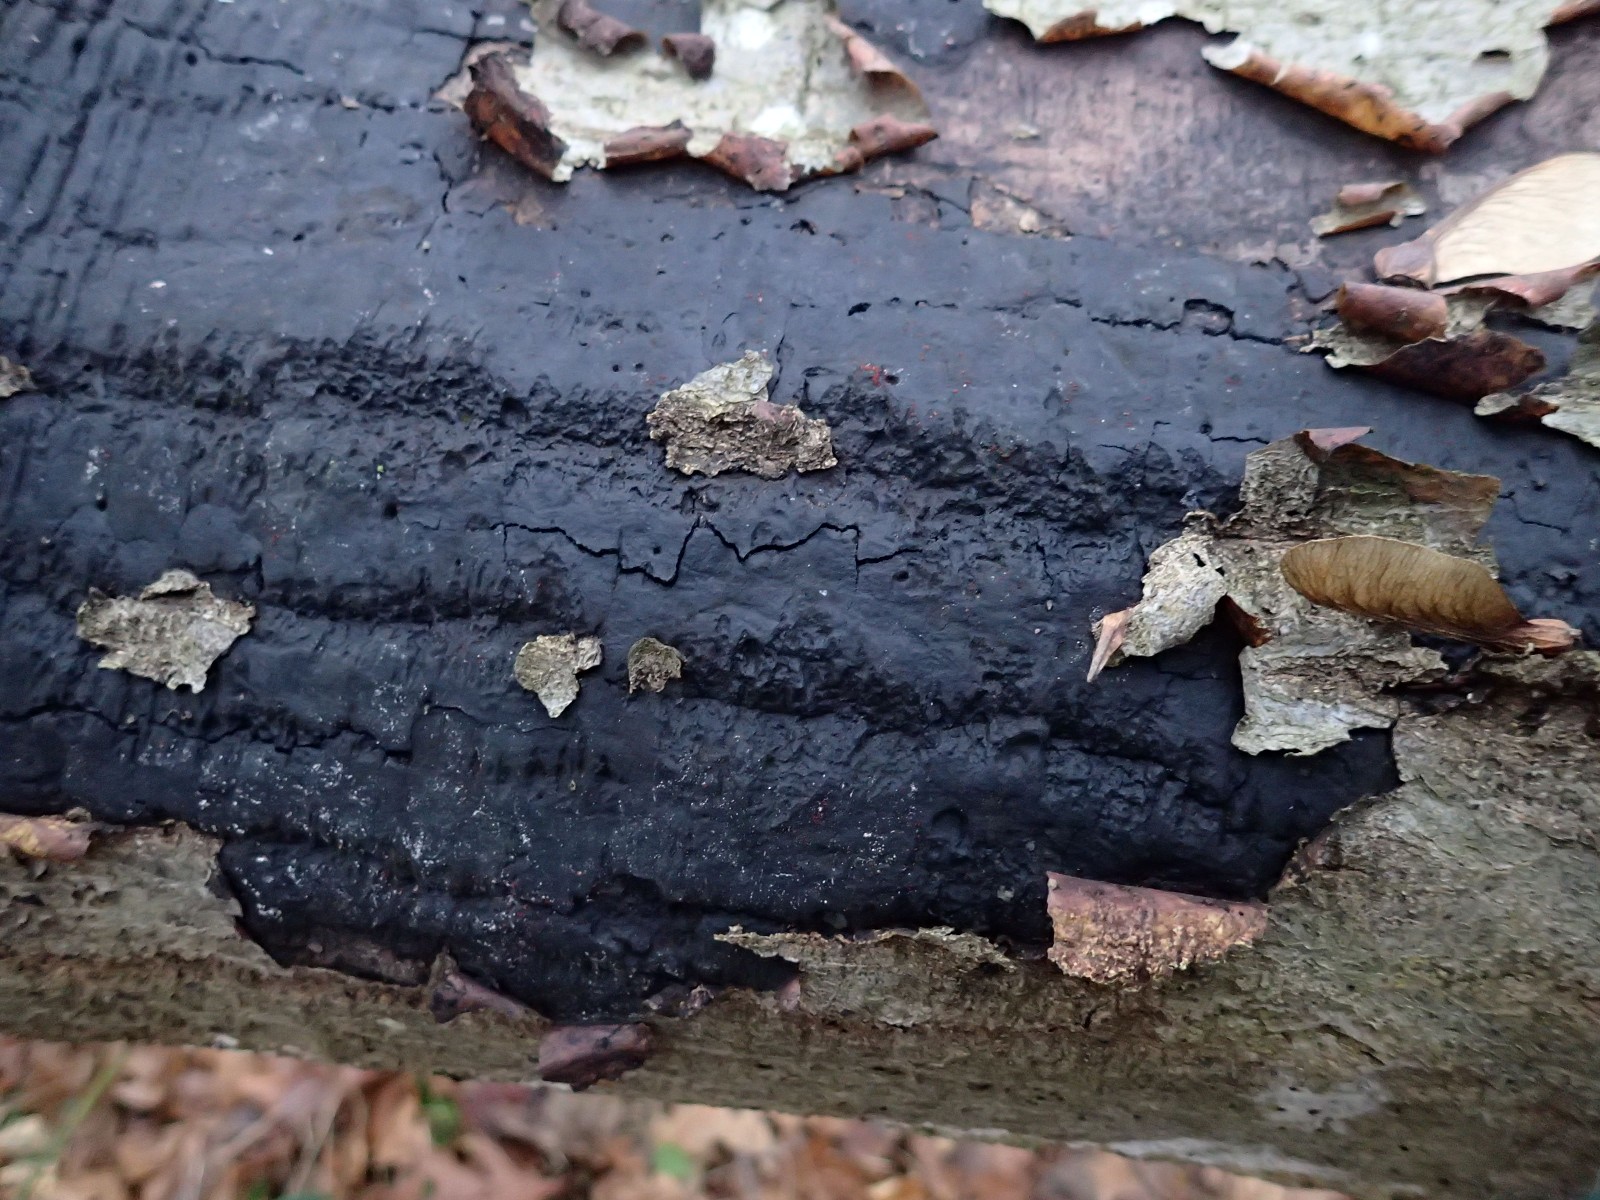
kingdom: Fungi
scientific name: Fungi
